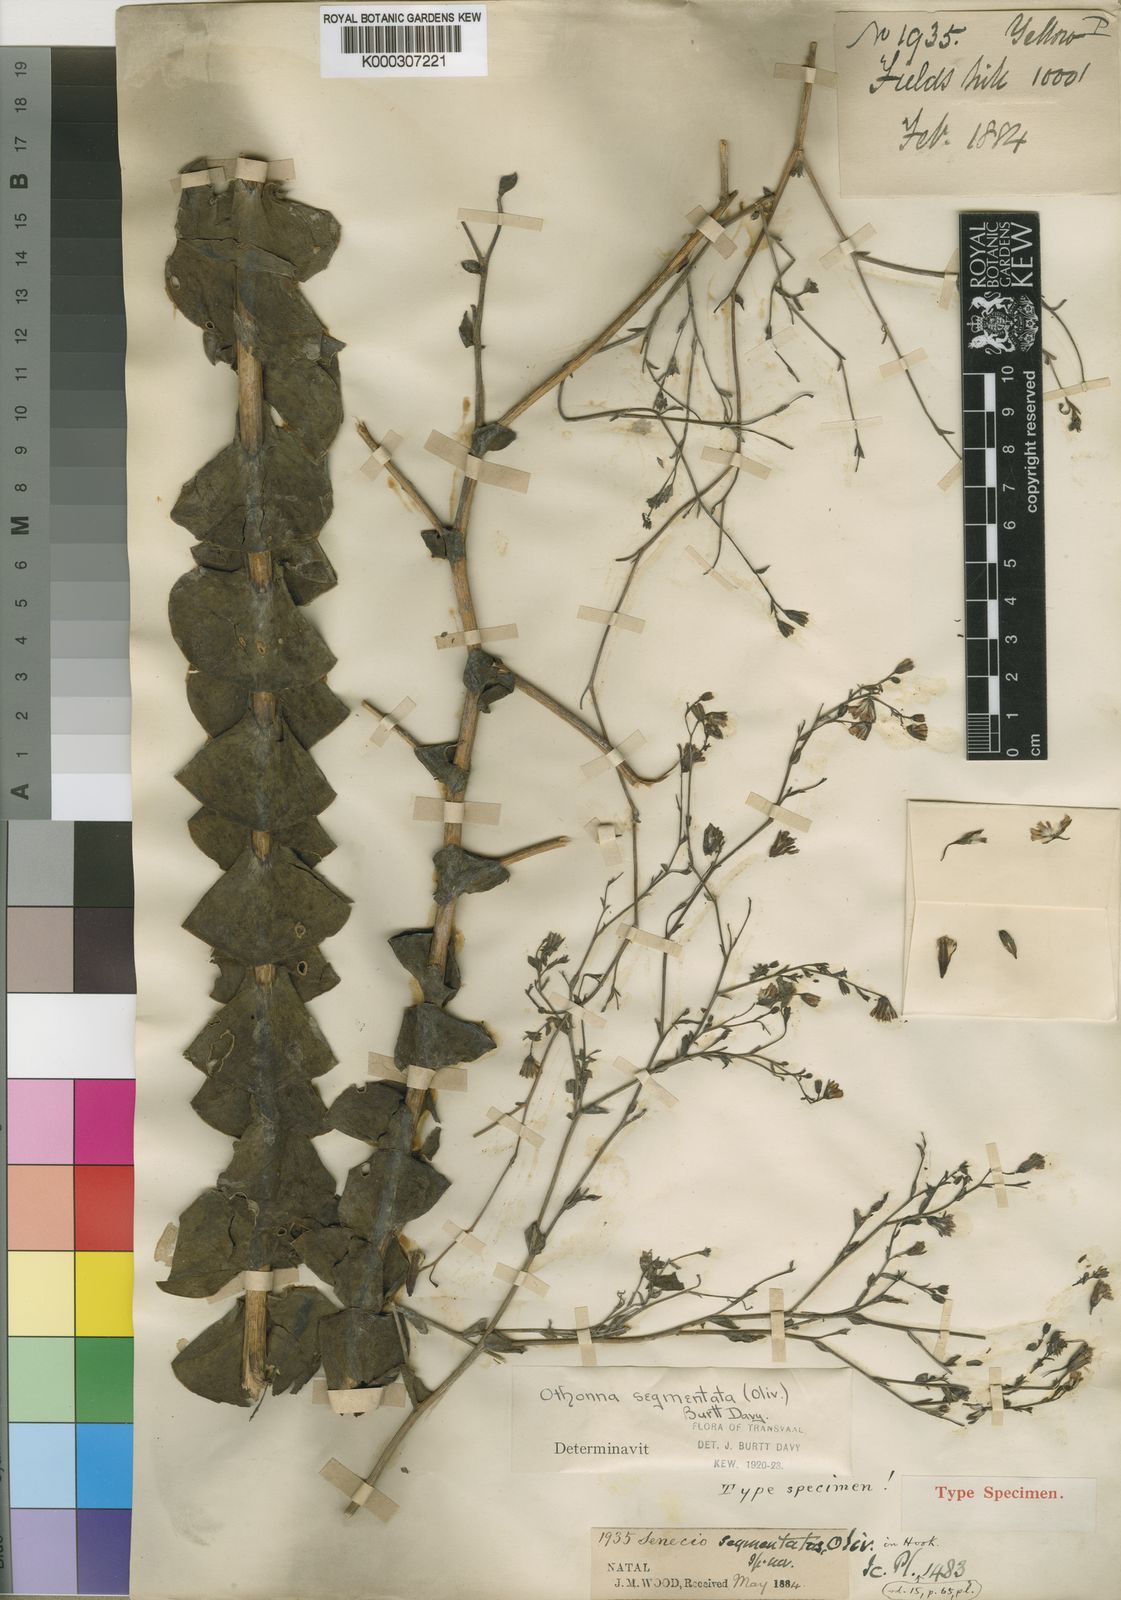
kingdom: Plantae
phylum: Tracheophyta
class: Magnoliopsida
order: Asterales
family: Asteraceae
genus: Lopholaena
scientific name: Lopholaena segmentata
